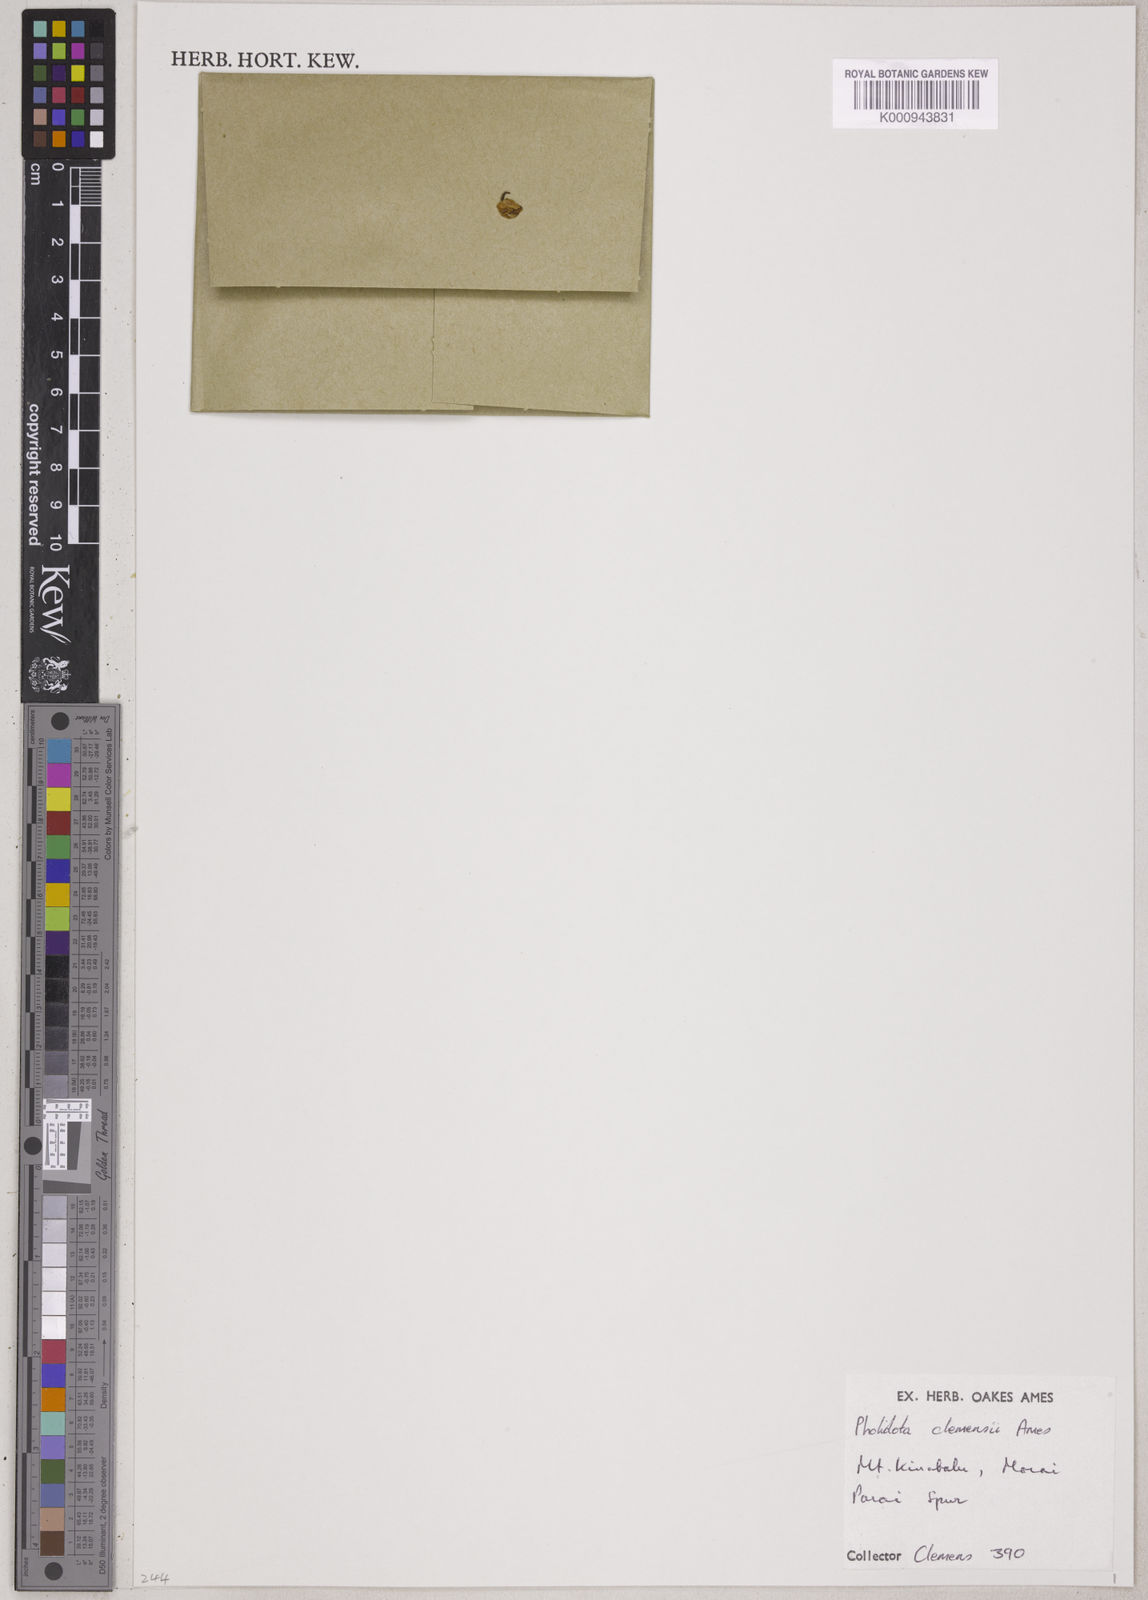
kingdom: Plantae
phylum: Tracheophyta
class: Liliopsida
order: Asparagales
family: Orchidaceae
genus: Coelogyne
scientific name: Coelogyne dentiloba
